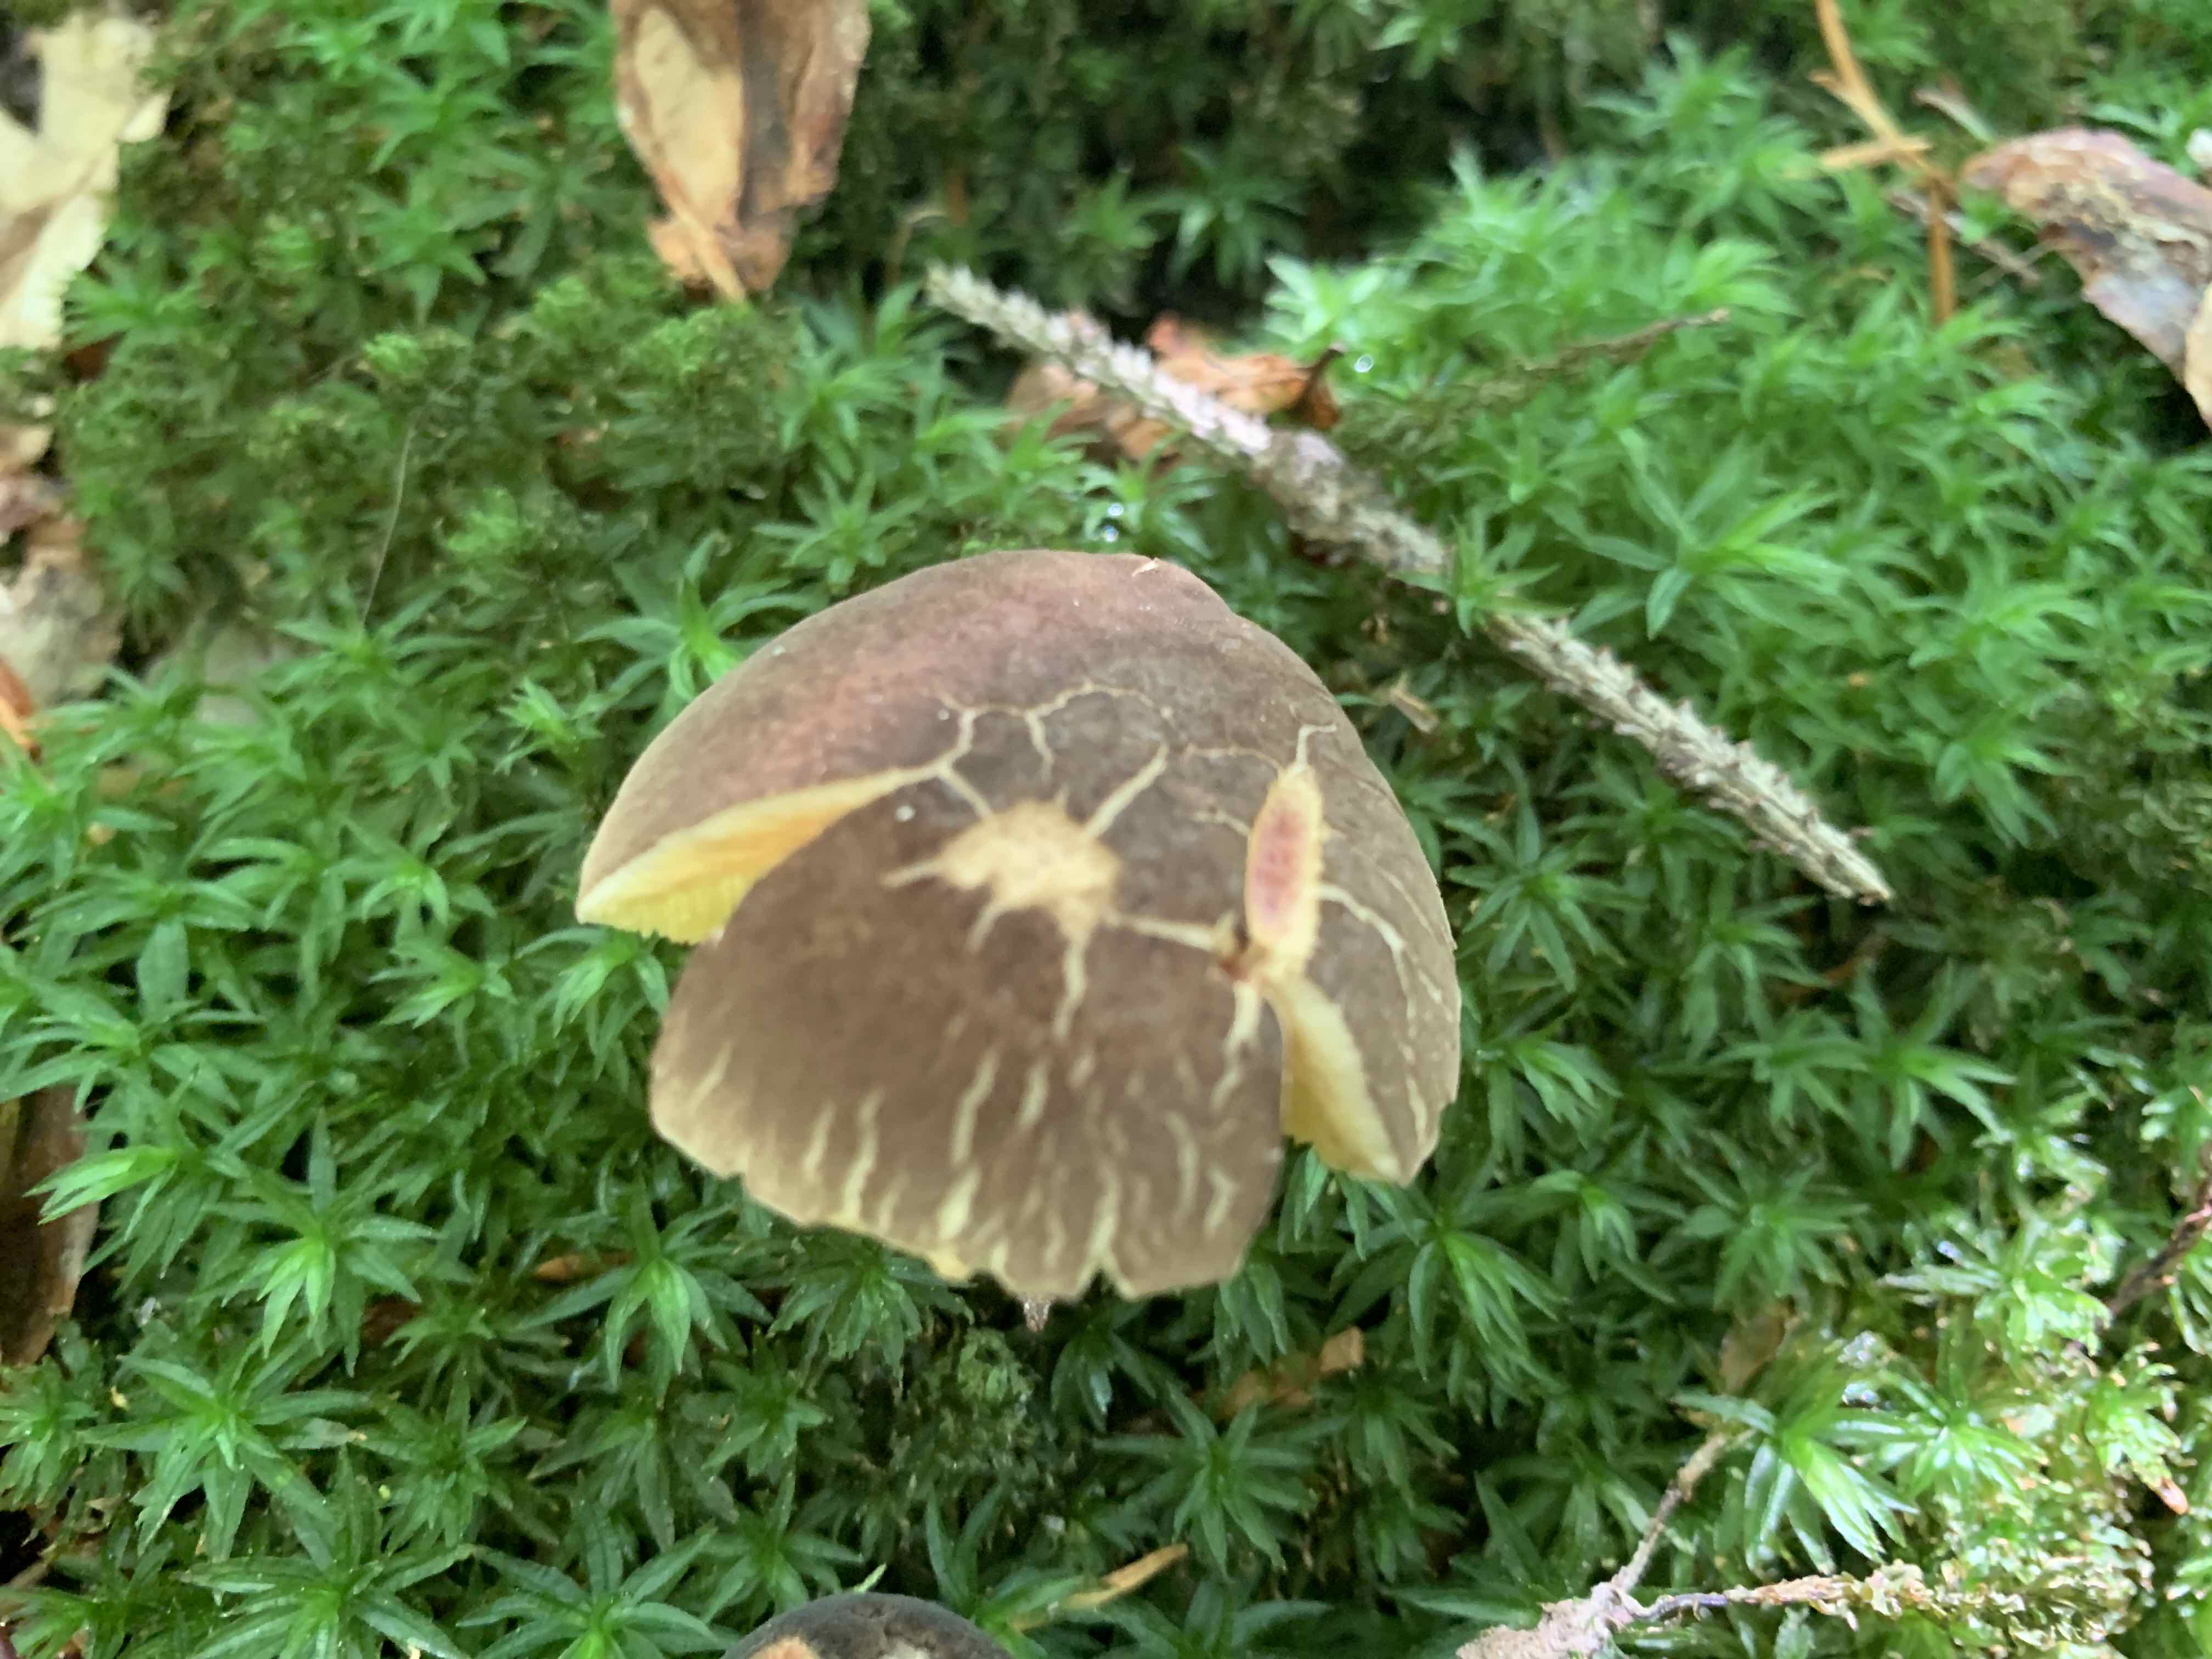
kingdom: Fungi
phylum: Basidiomycota
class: Agaricomycetes
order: Boletales
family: Boletaceae
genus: Xerocomellus
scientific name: Xerocomellus
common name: dværgrørhat
